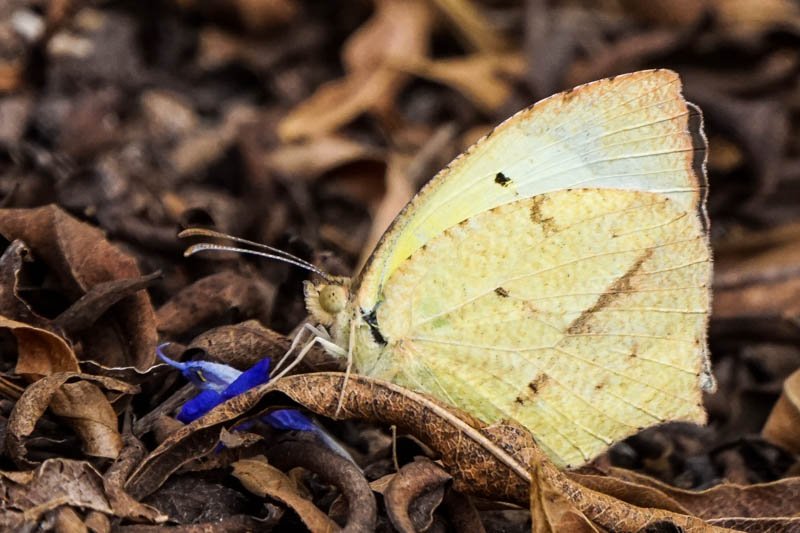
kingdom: Animalia
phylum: Arthropoda
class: Insecta
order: Lepidoptera
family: Pieridae
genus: Eurema
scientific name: Eurema mexicana
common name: Mexican Yellow
